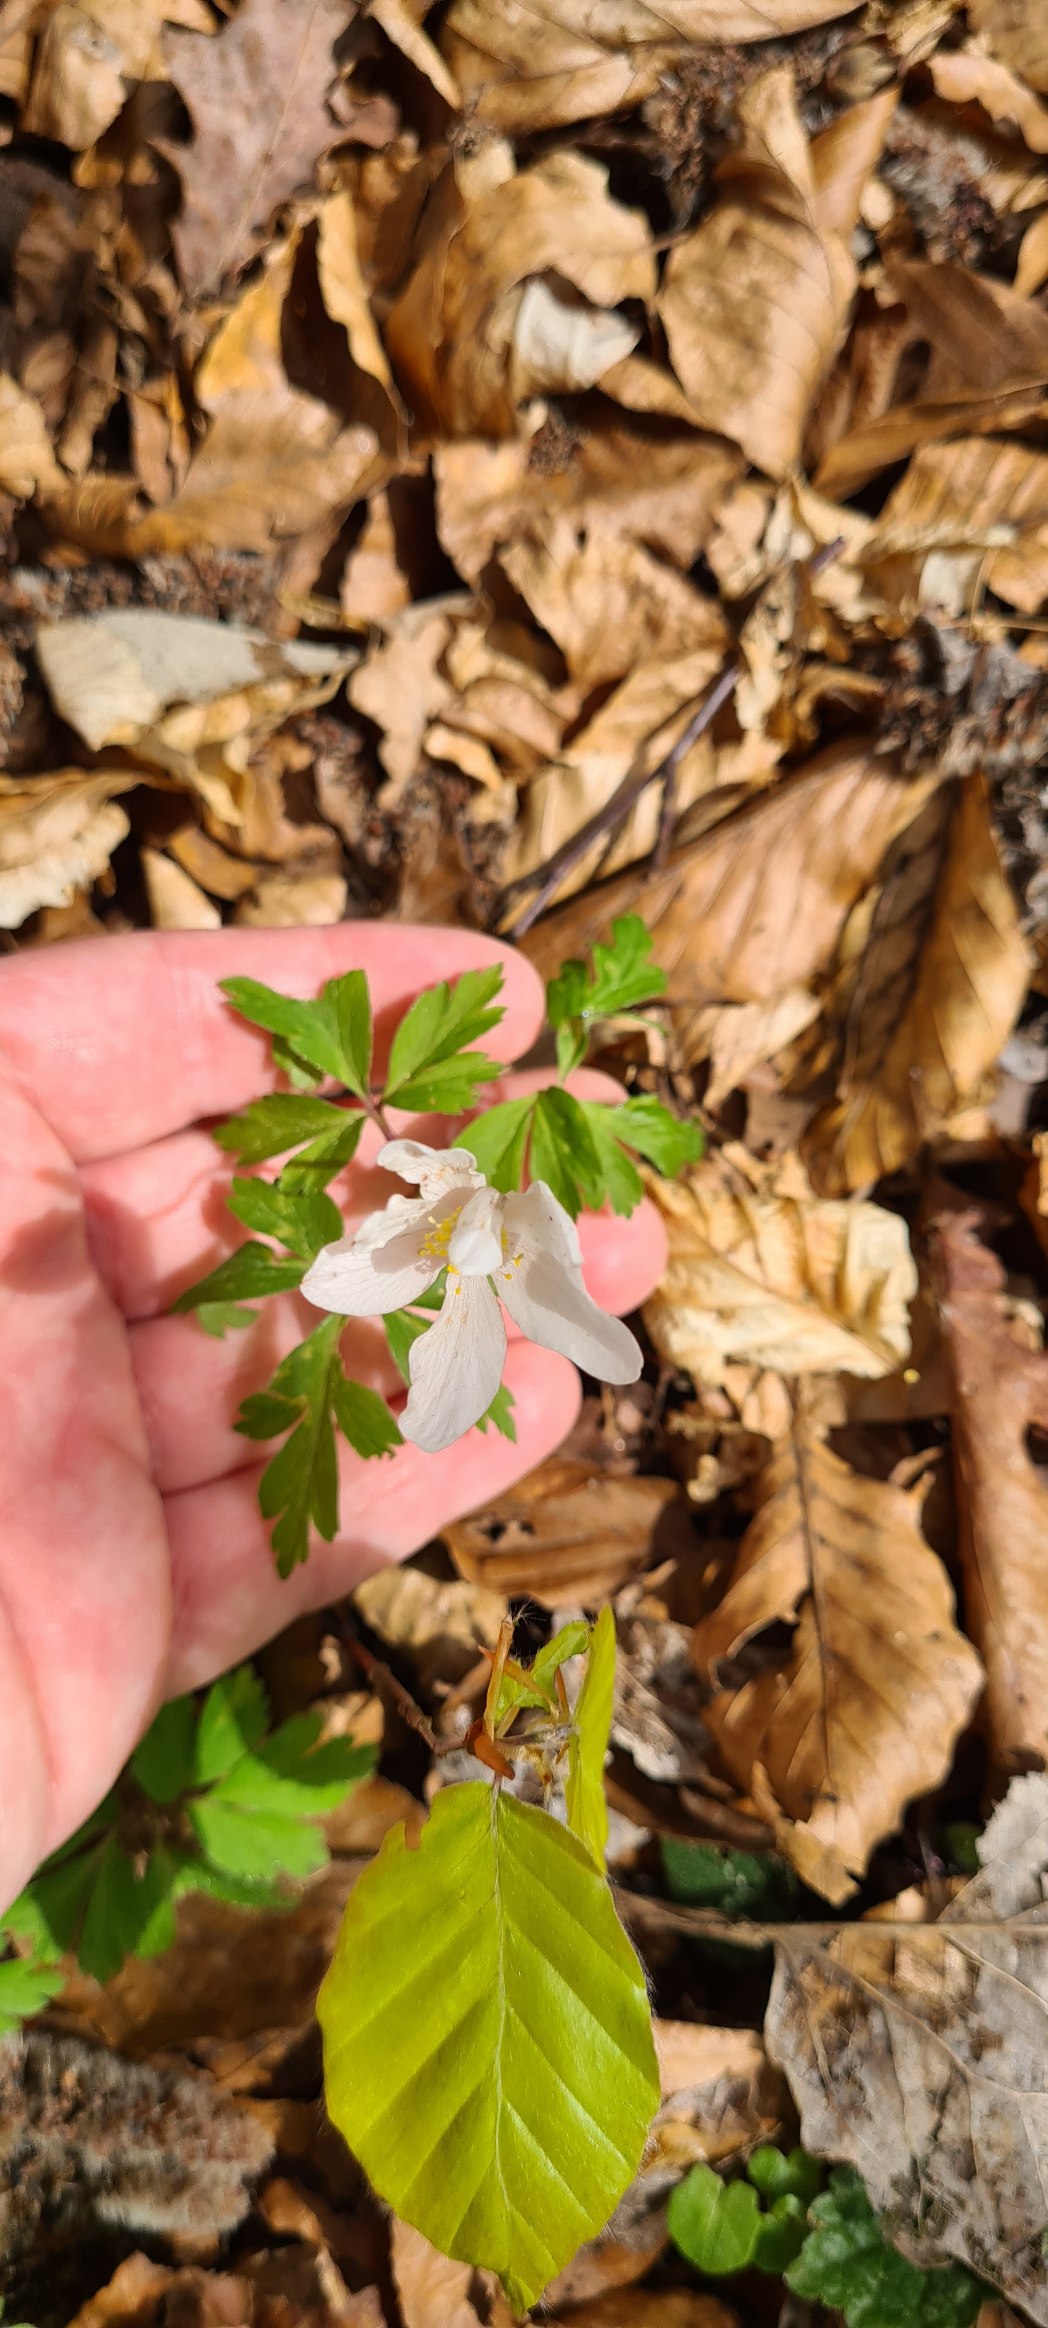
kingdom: Plantae
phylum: Tracheophyta
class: Magnoliopsida
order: Ranunculales
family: Ranunculaceae
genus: Anemone
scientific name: Anemone nemorosa
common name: Hvid anemone
